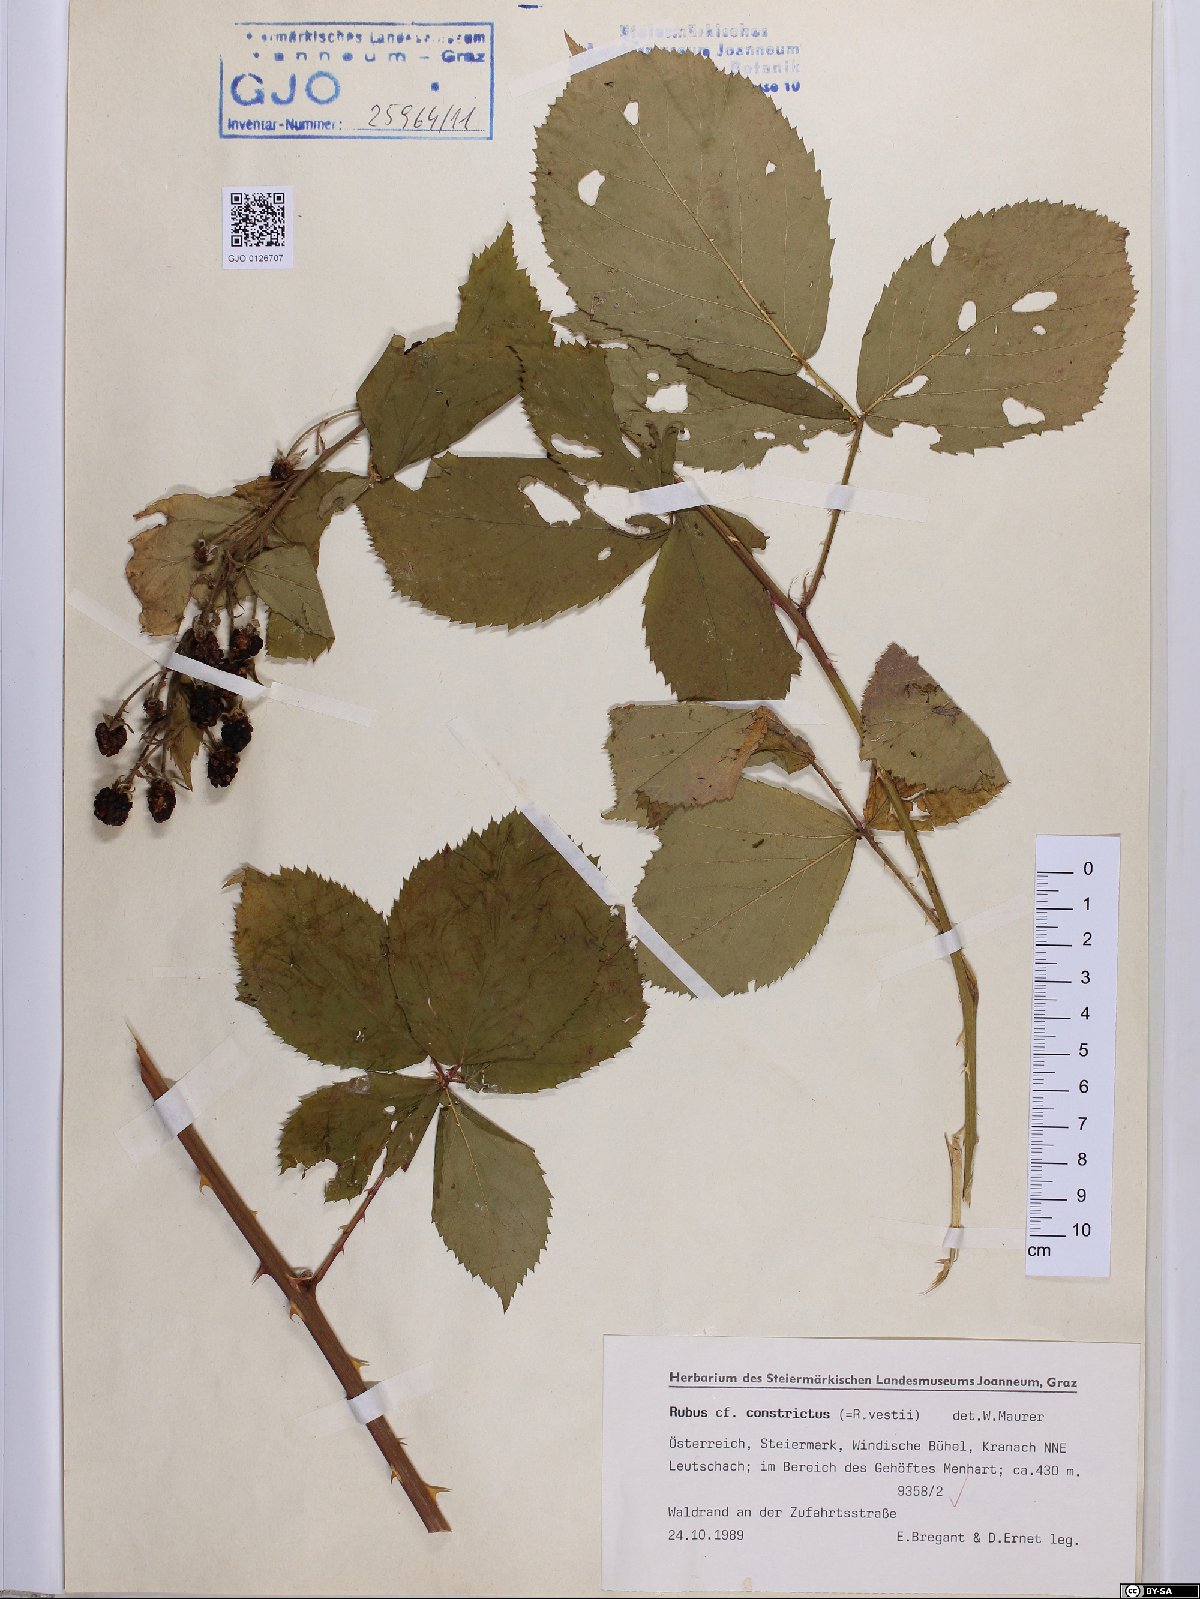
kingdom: Plantae
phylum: Tracheophyta
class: Magnoliopsida
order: Rosales
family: Rosaceae
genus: Rubus
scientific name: Rubus constrictus
